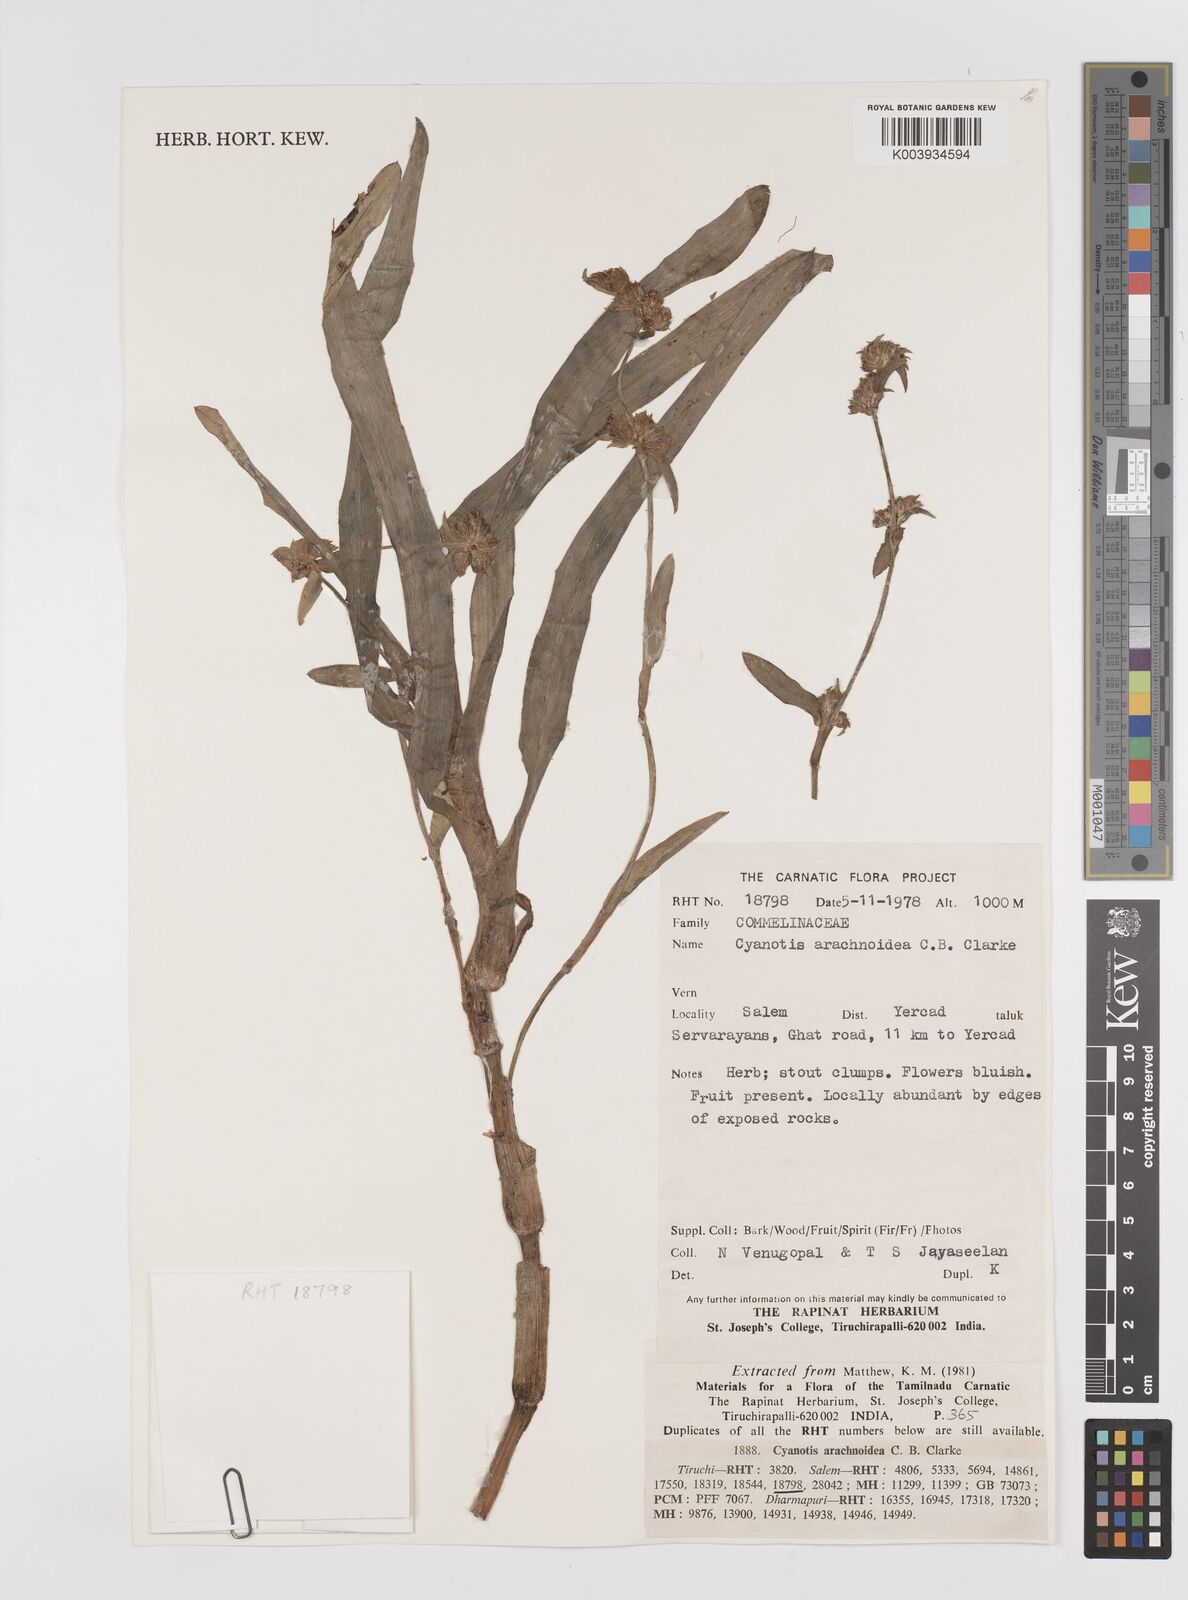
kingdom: Plantae
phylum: Tracheophyta
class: Liliopsida
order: Commelinales
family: Commelinaceae
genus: Cyanotis
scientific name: Cyanotis arachnoidea
